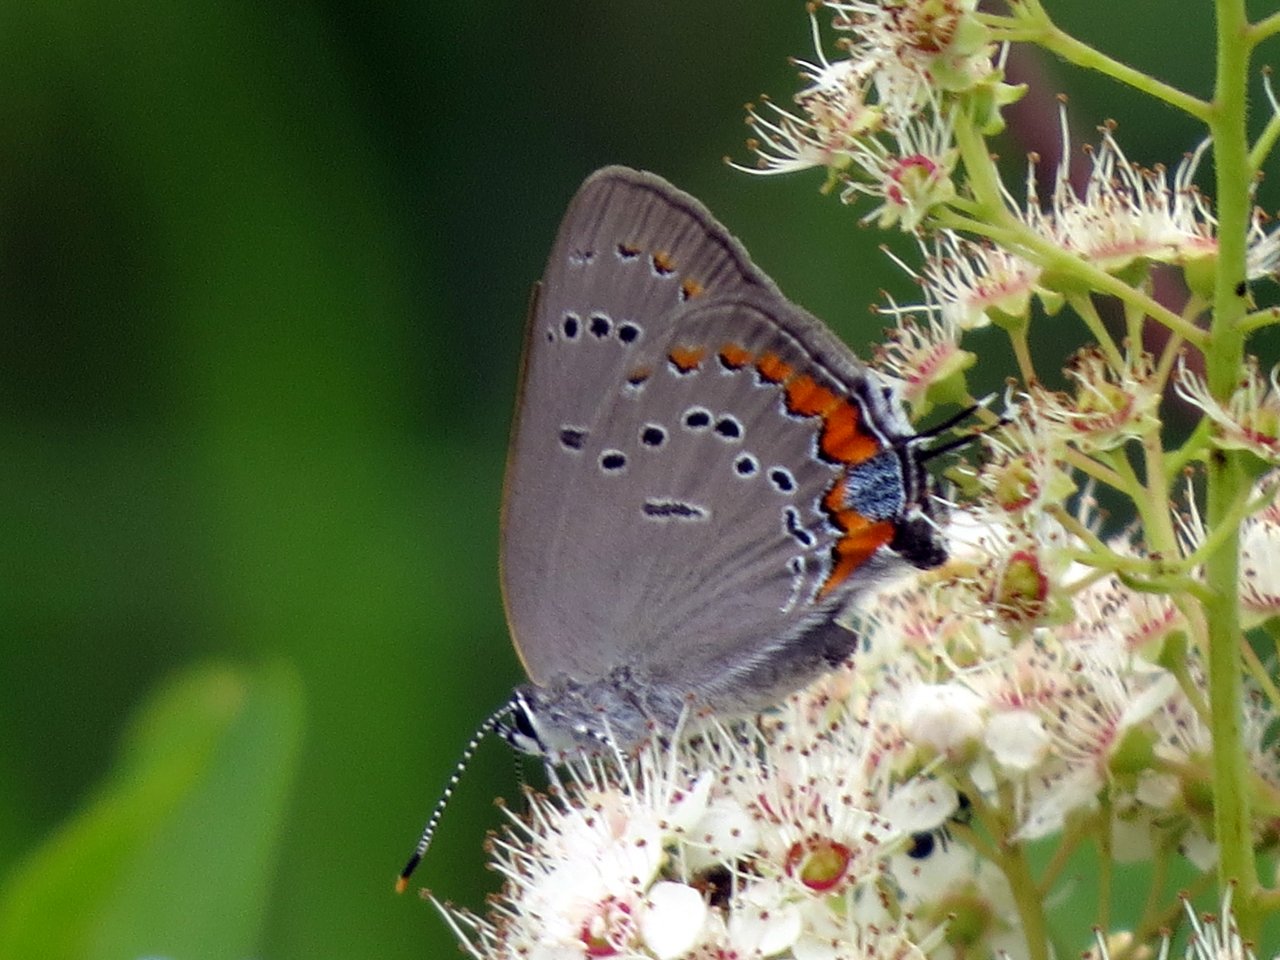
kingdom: Animalia
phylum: Arthropoda
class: Insecta
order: Lepidoptera
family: Lycaenidae
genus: Strymon
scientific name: Strymon acadica
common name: Acadian Hairstreak
